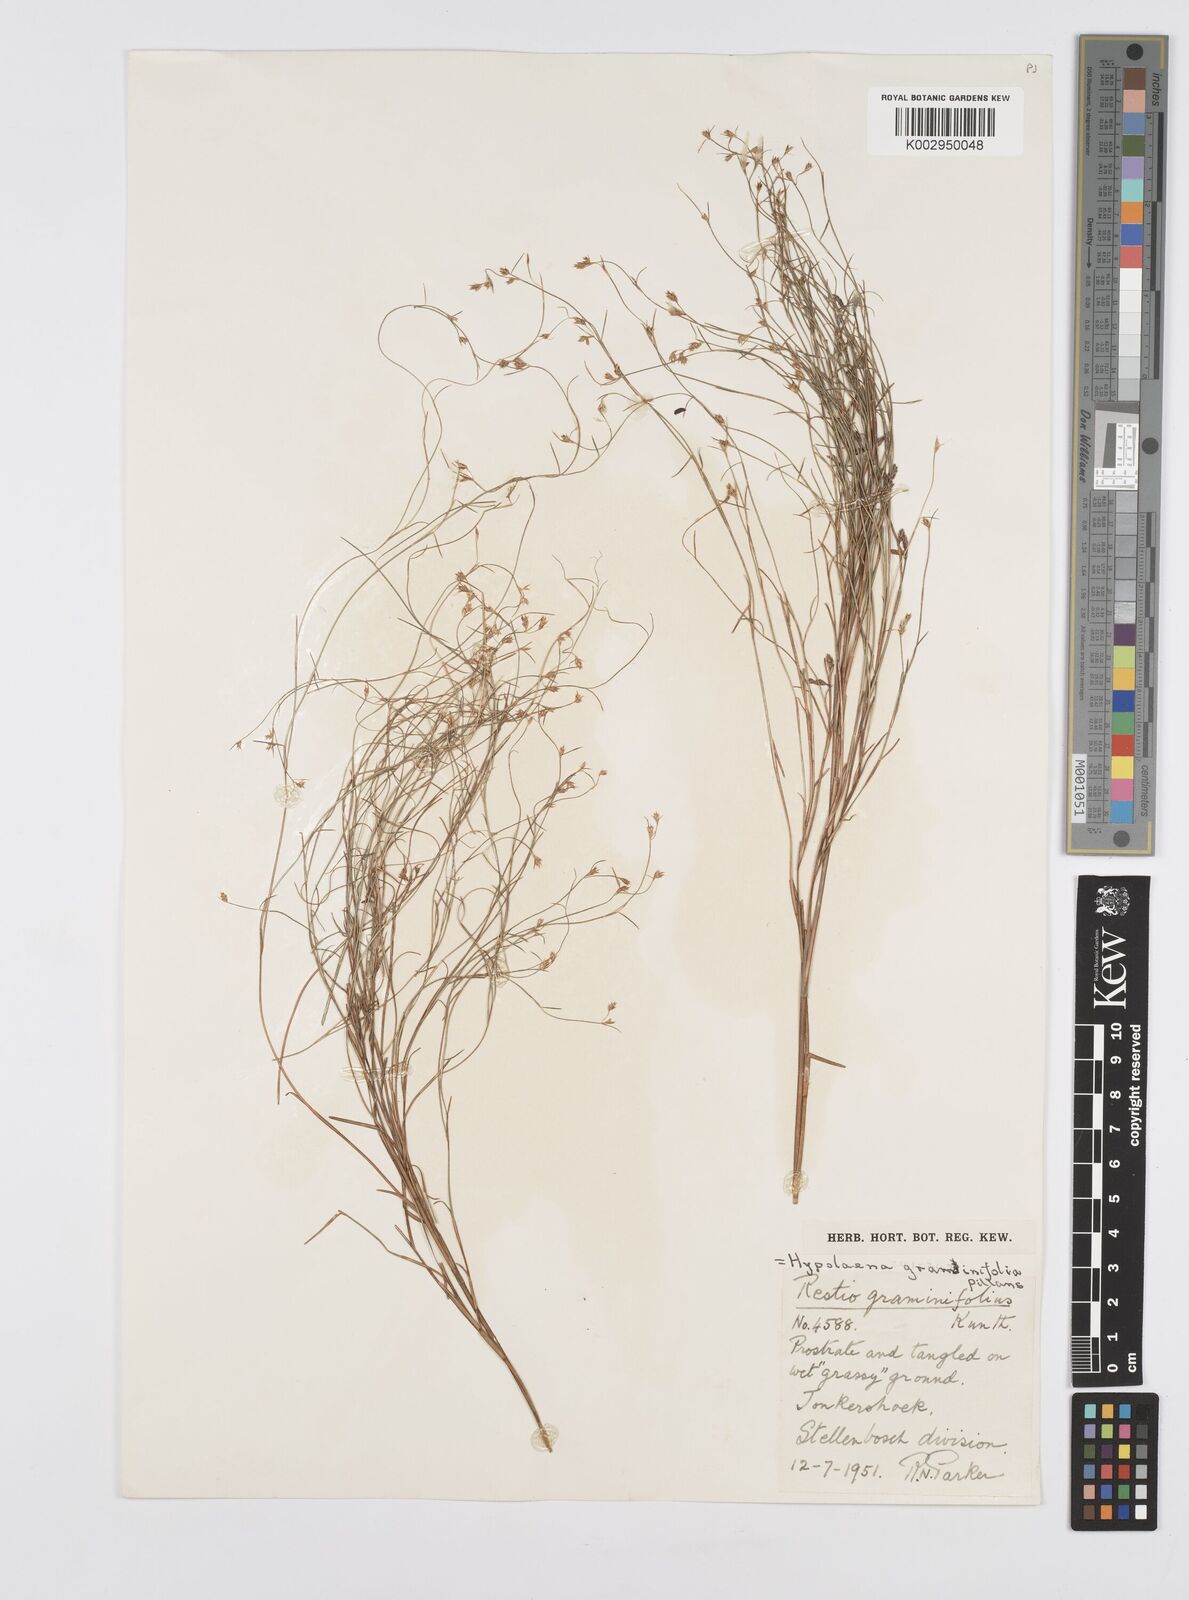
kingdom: Plantae
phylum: Tracheophyta
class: Liliopsida
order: Poales
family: Restionaceae
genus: Anthochortus
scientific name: Anthochortus graminifolius
